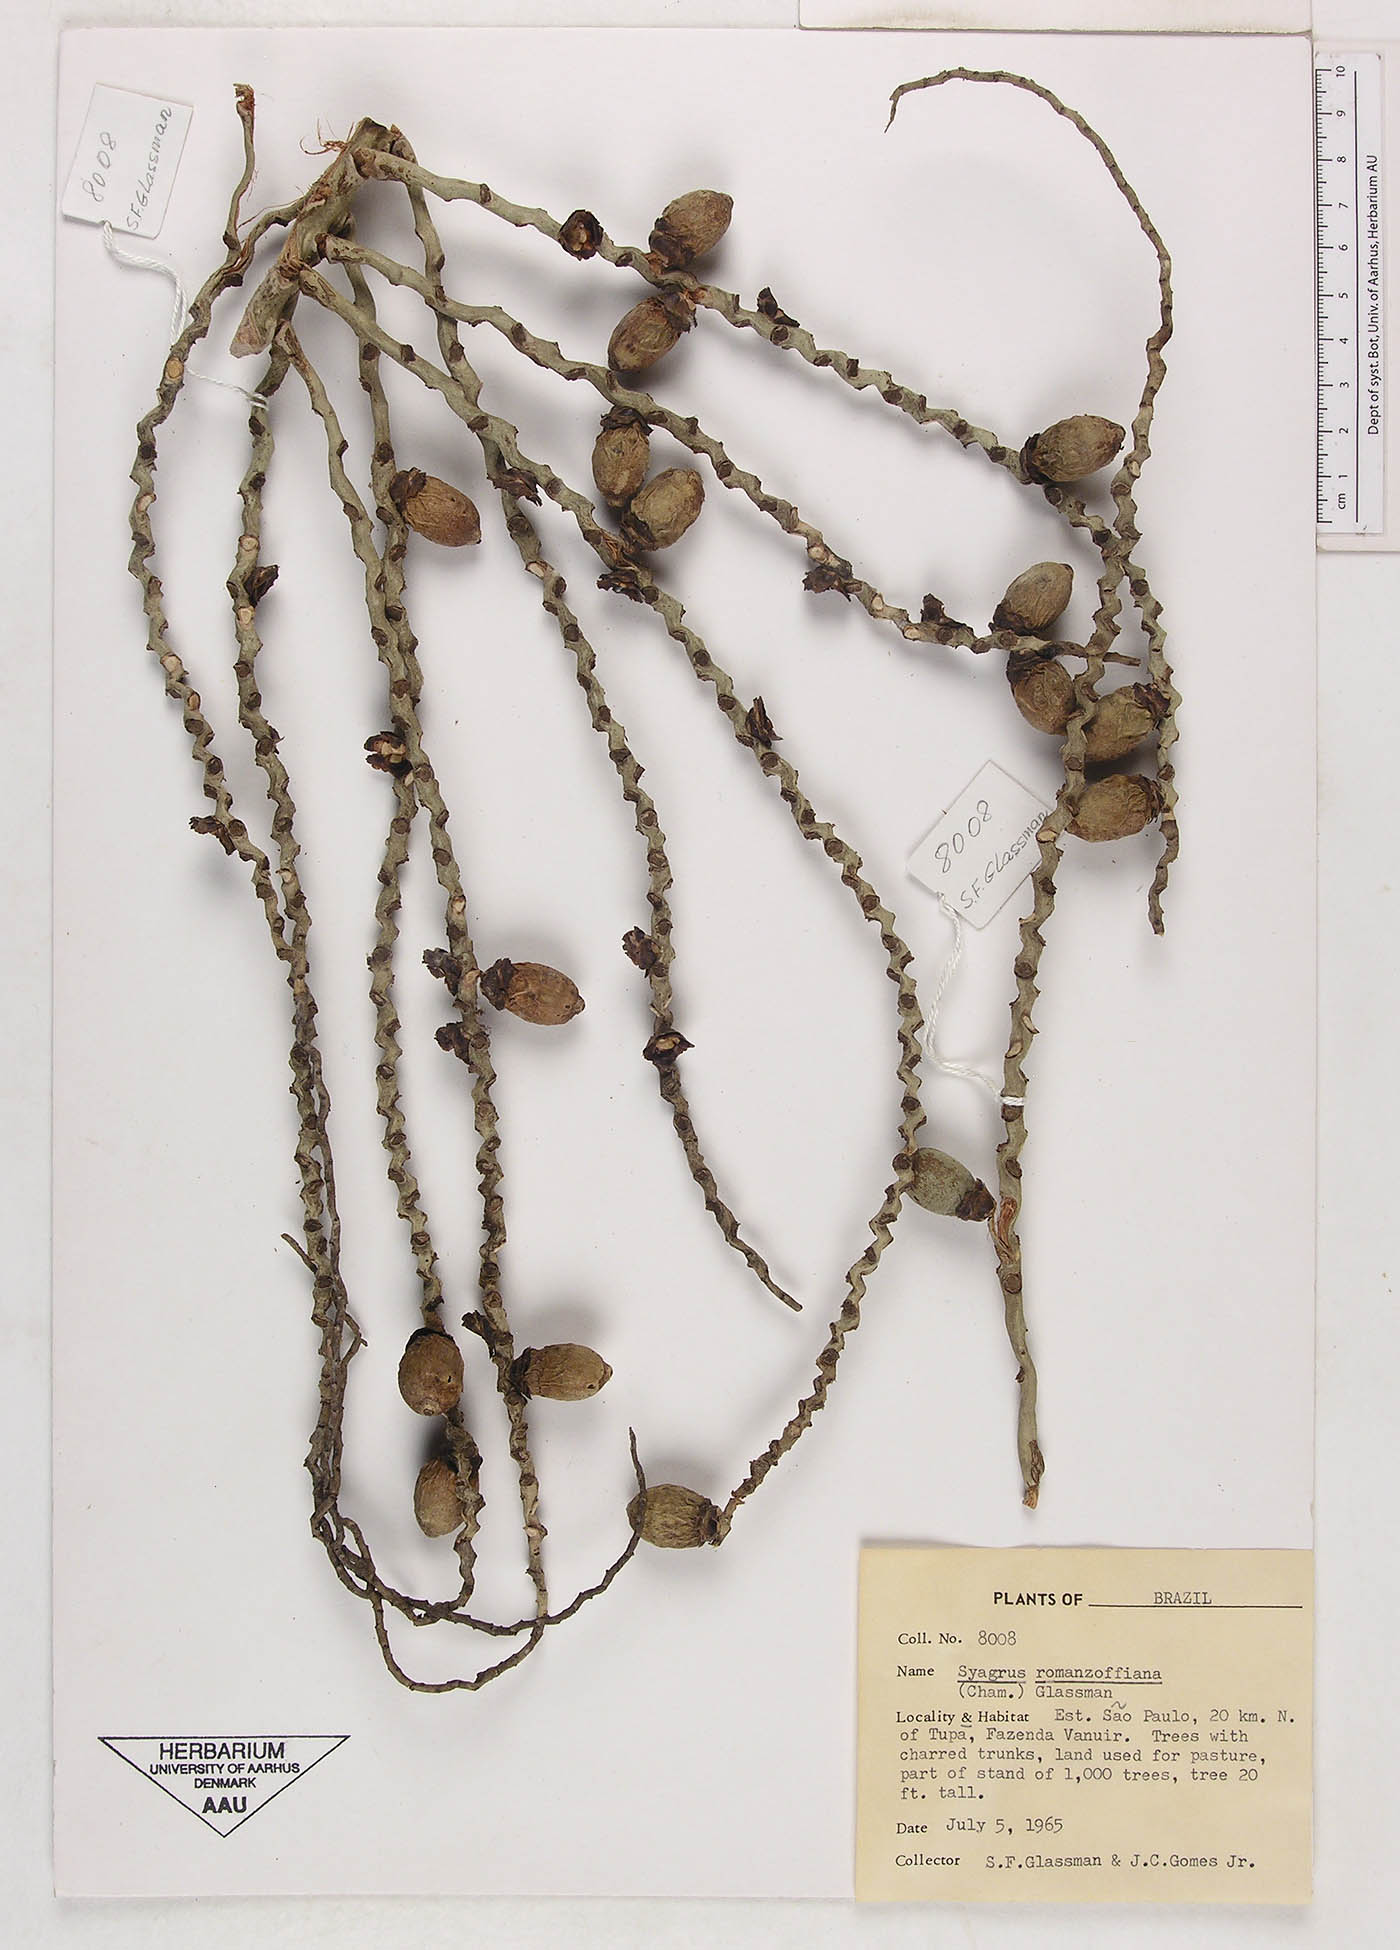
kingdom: Plantae
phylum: Tracheophyta
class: Liliopsida
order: Arecales
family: Arecaceae
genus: Syagrus
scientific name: Syagrus romanzoffiana
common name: Queen palm
